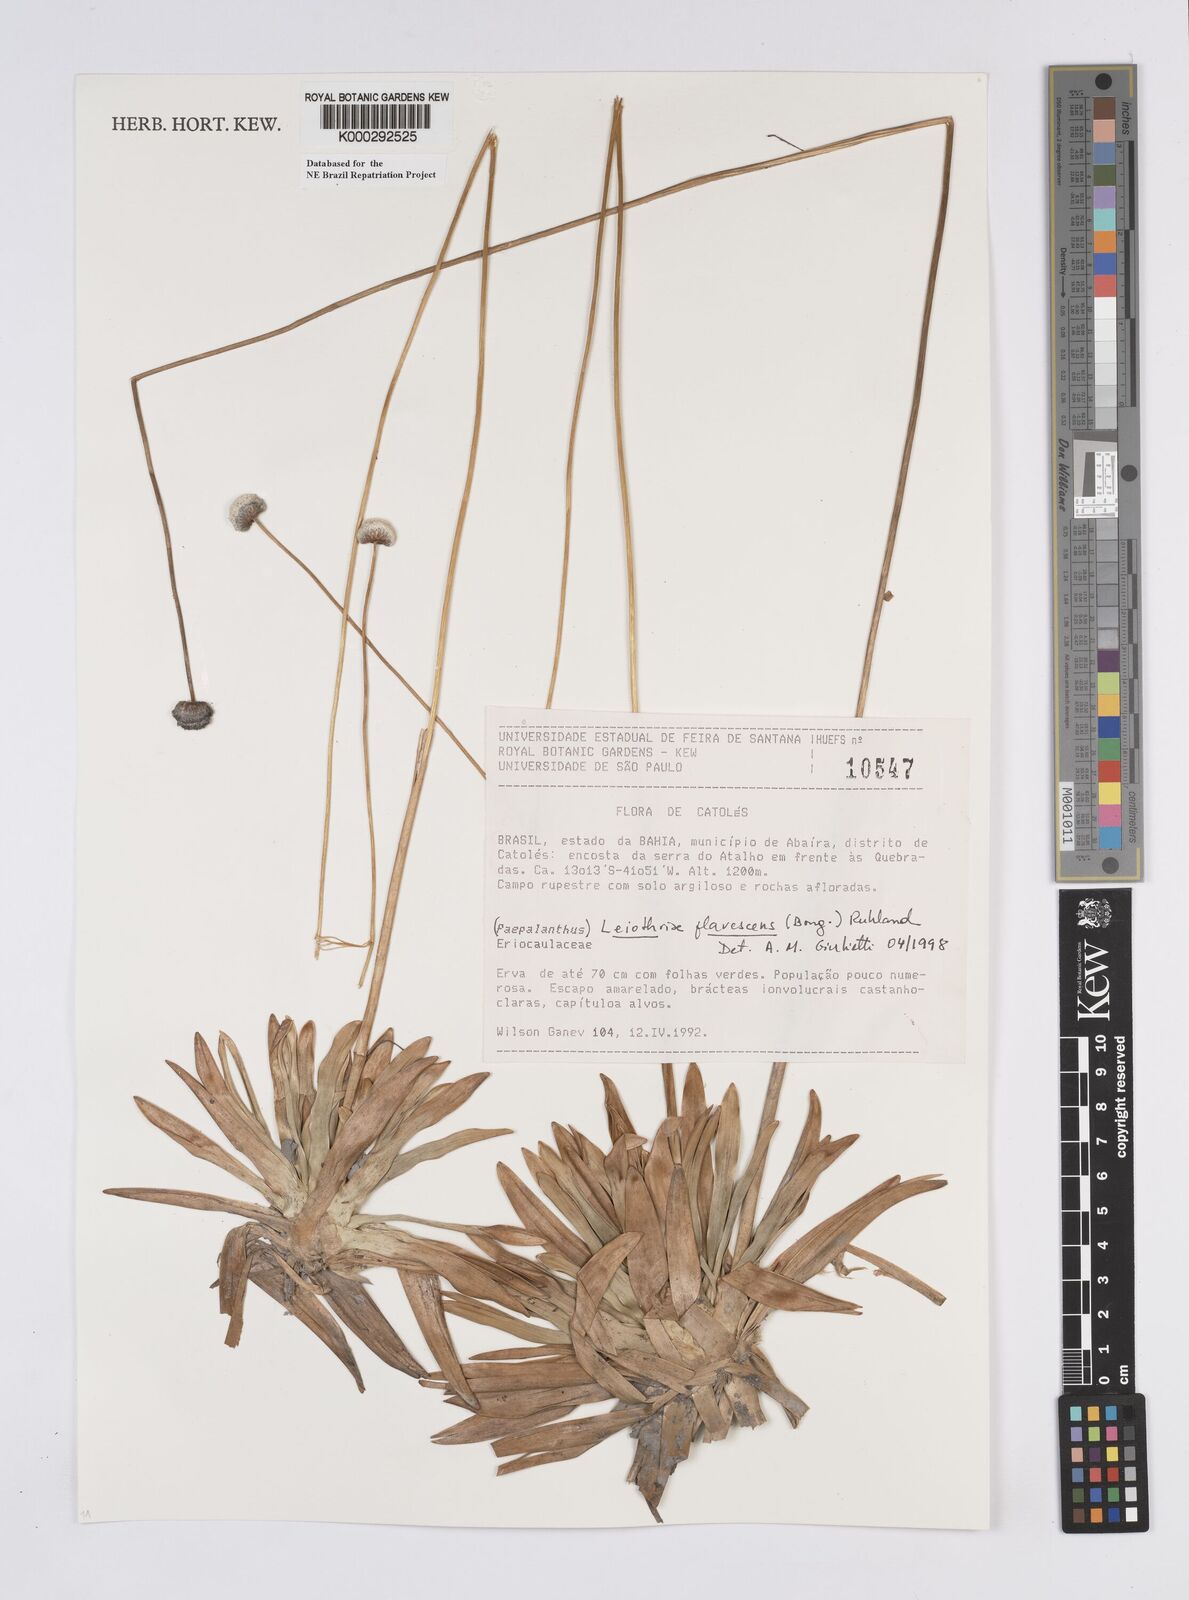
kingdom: Plantae
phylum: Tracheophyta
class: Liliopsida
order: Poales
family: Eriocaulaceae
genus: Leiothrix
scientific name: Leiothrix flavescens
